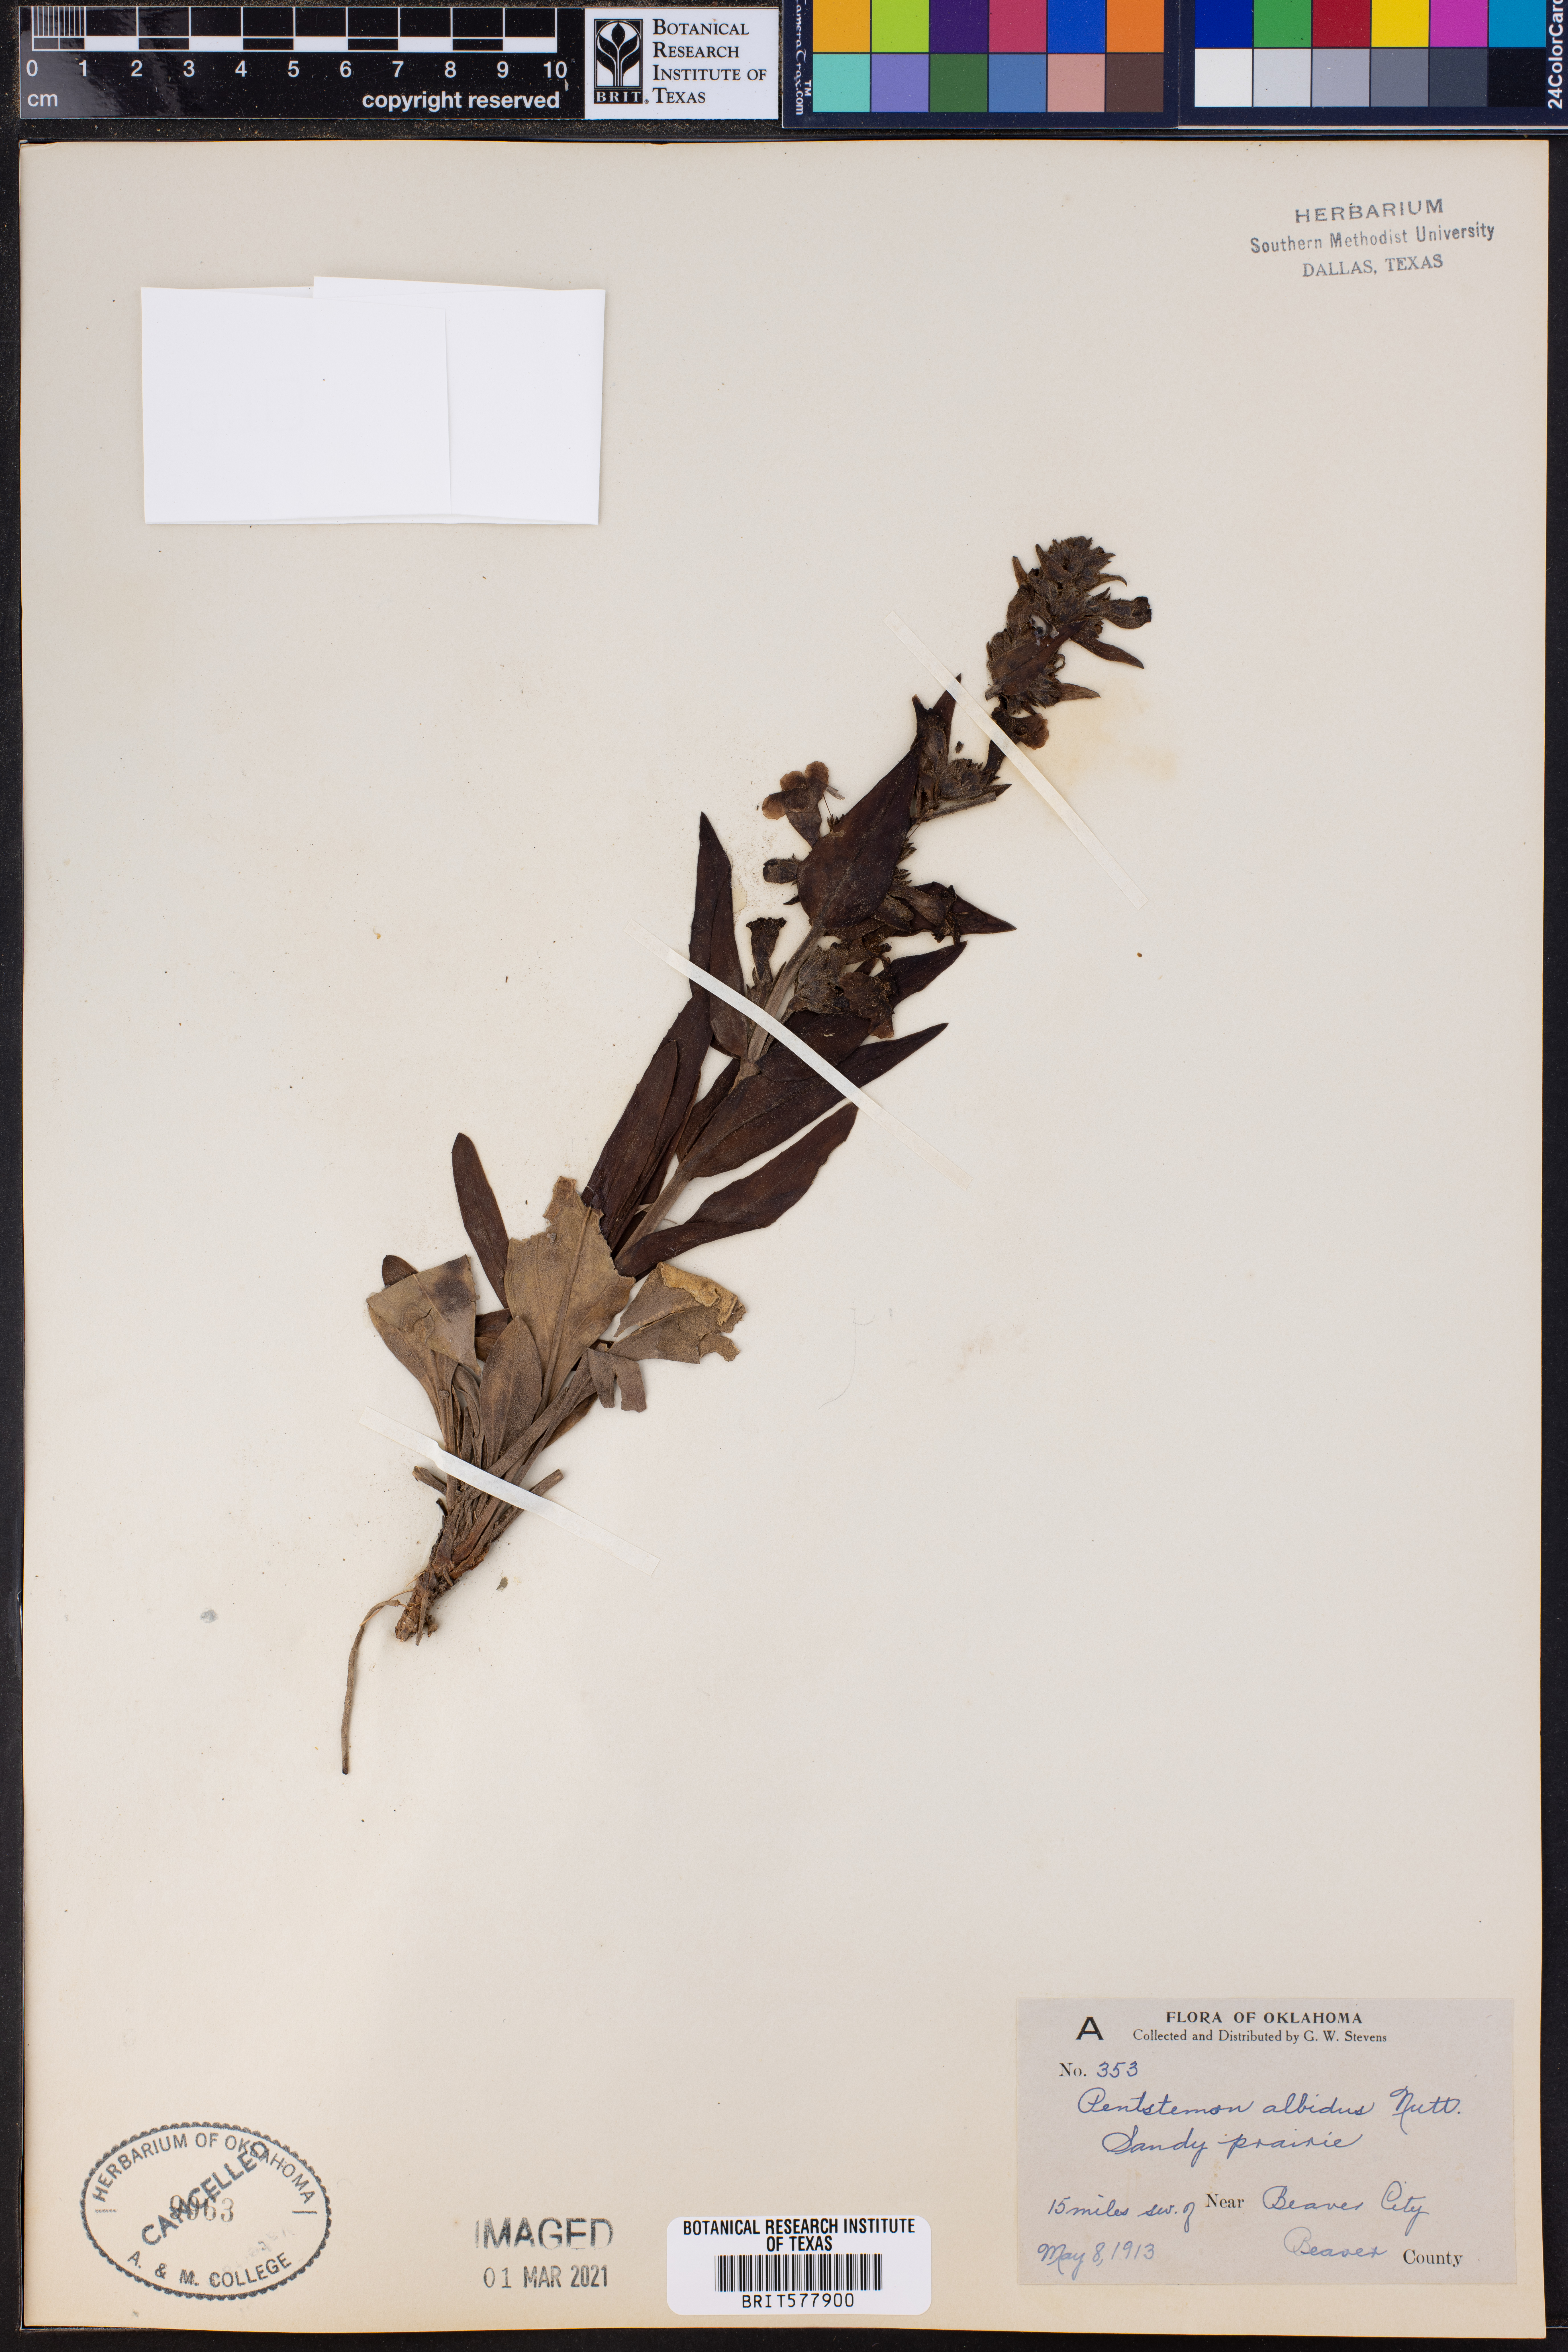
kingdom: Plantae
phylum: Tracheophyta
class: Magnoliopsida
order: Lamiales
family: Plantaginaceae
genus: Penstemon
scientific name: Penstemon albidus
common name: White beardtongue
